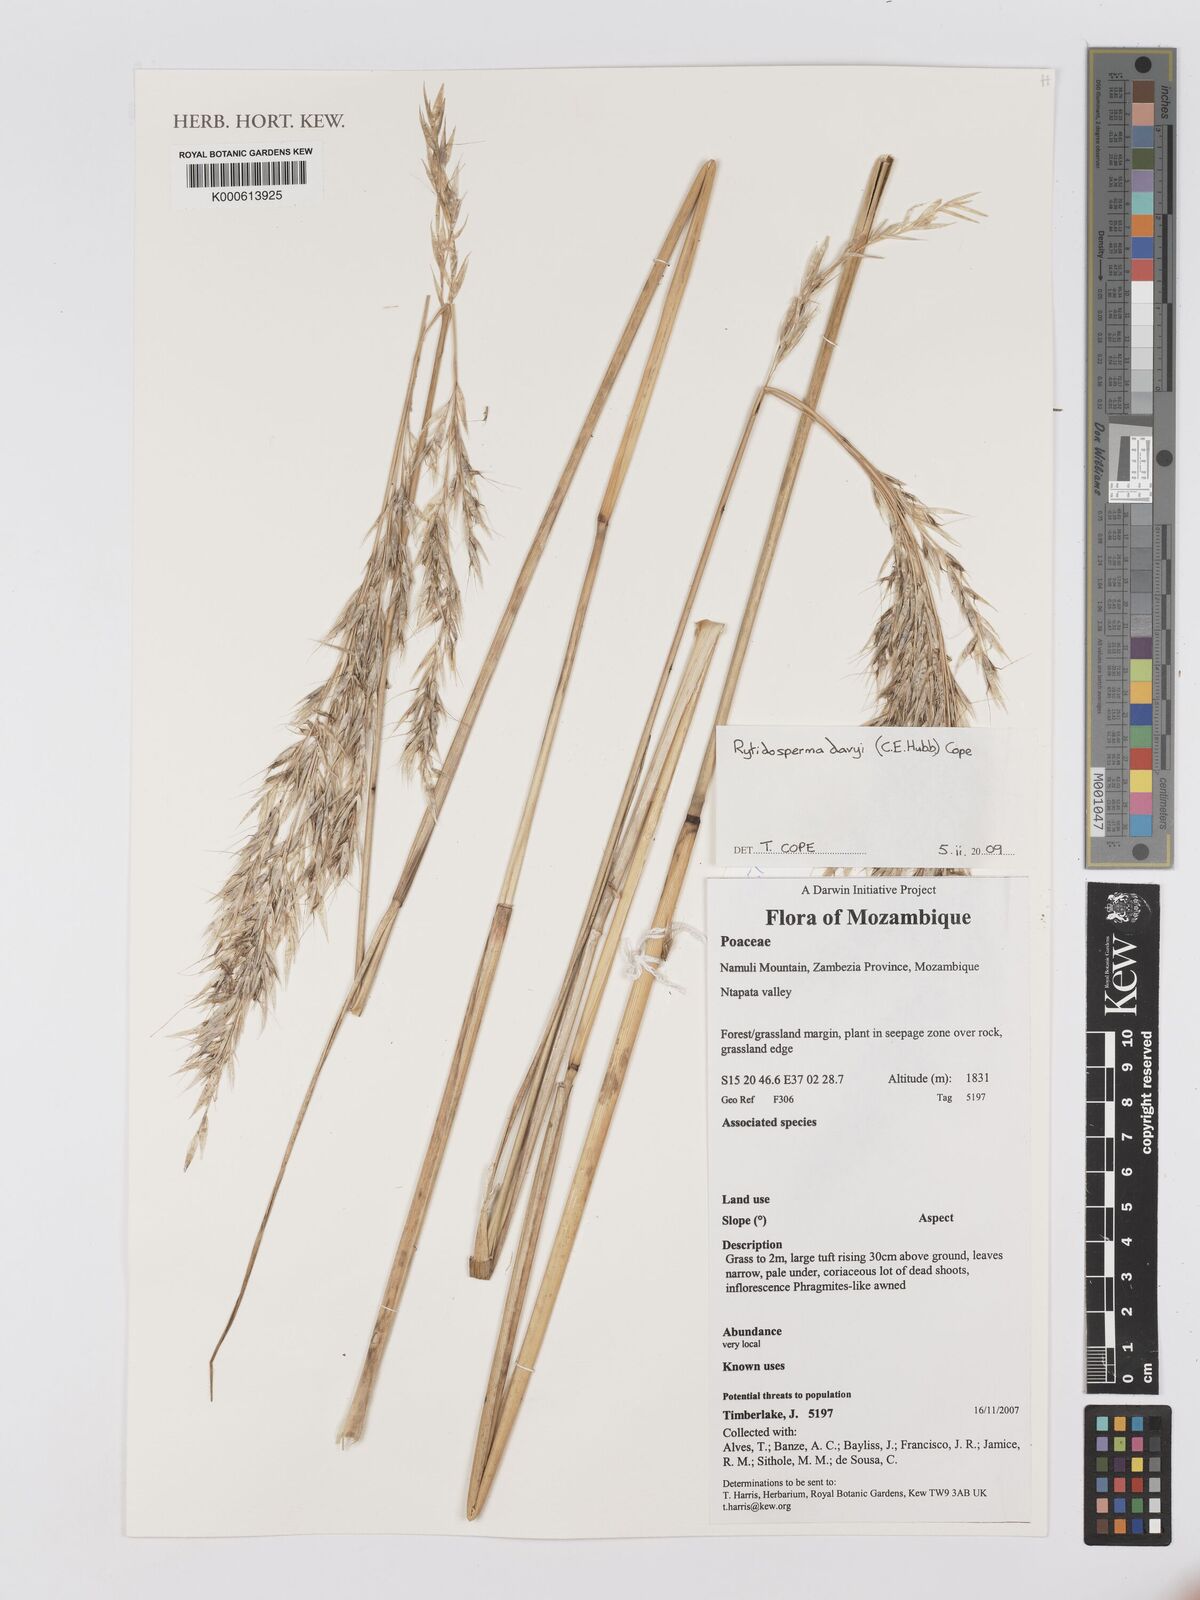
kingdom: Plantae
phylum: Tracheophyta
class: Liliopsida
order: Poales
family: Poaceae
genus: Merxmuellera
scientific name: Merxmuellera davyi
